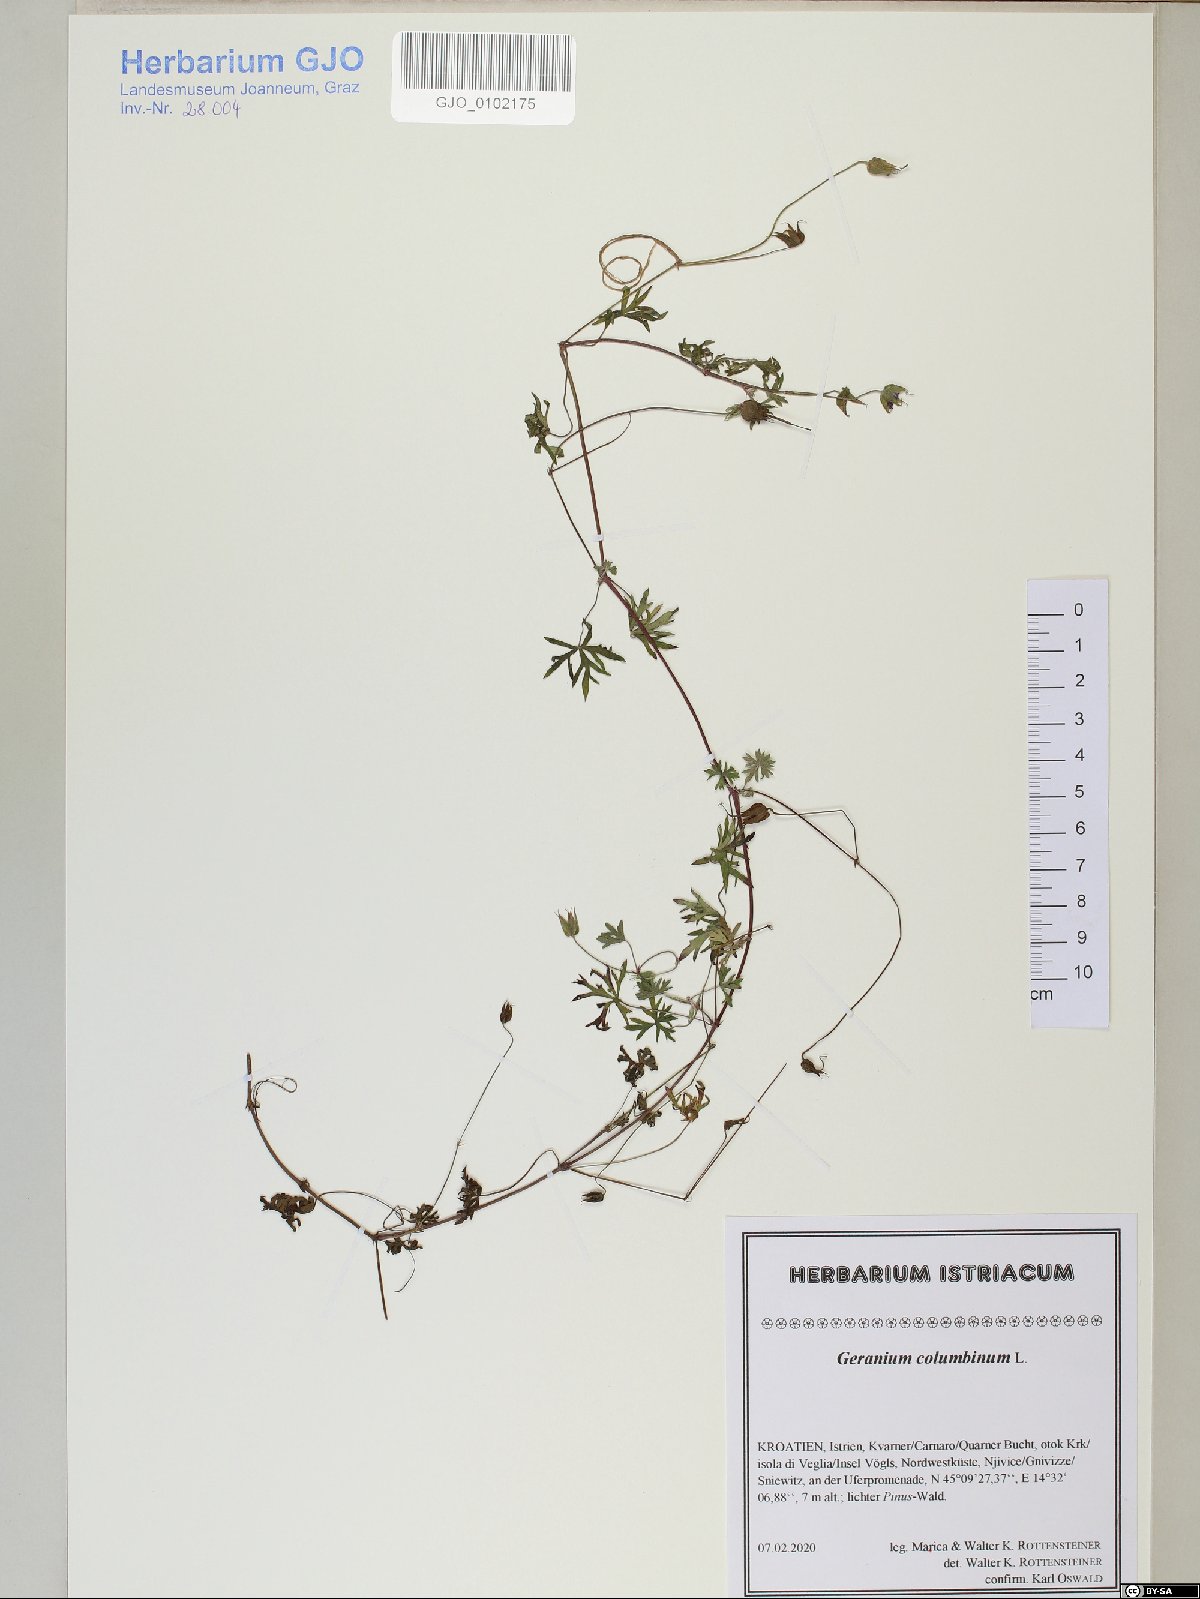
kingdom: Plantae
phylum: Tracheophyta
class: Magnoliopsida
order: Geraniales
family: Geraniaceae
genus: Geranium
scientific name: Geranium columbinum
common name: Long-stalked crane's-bill
